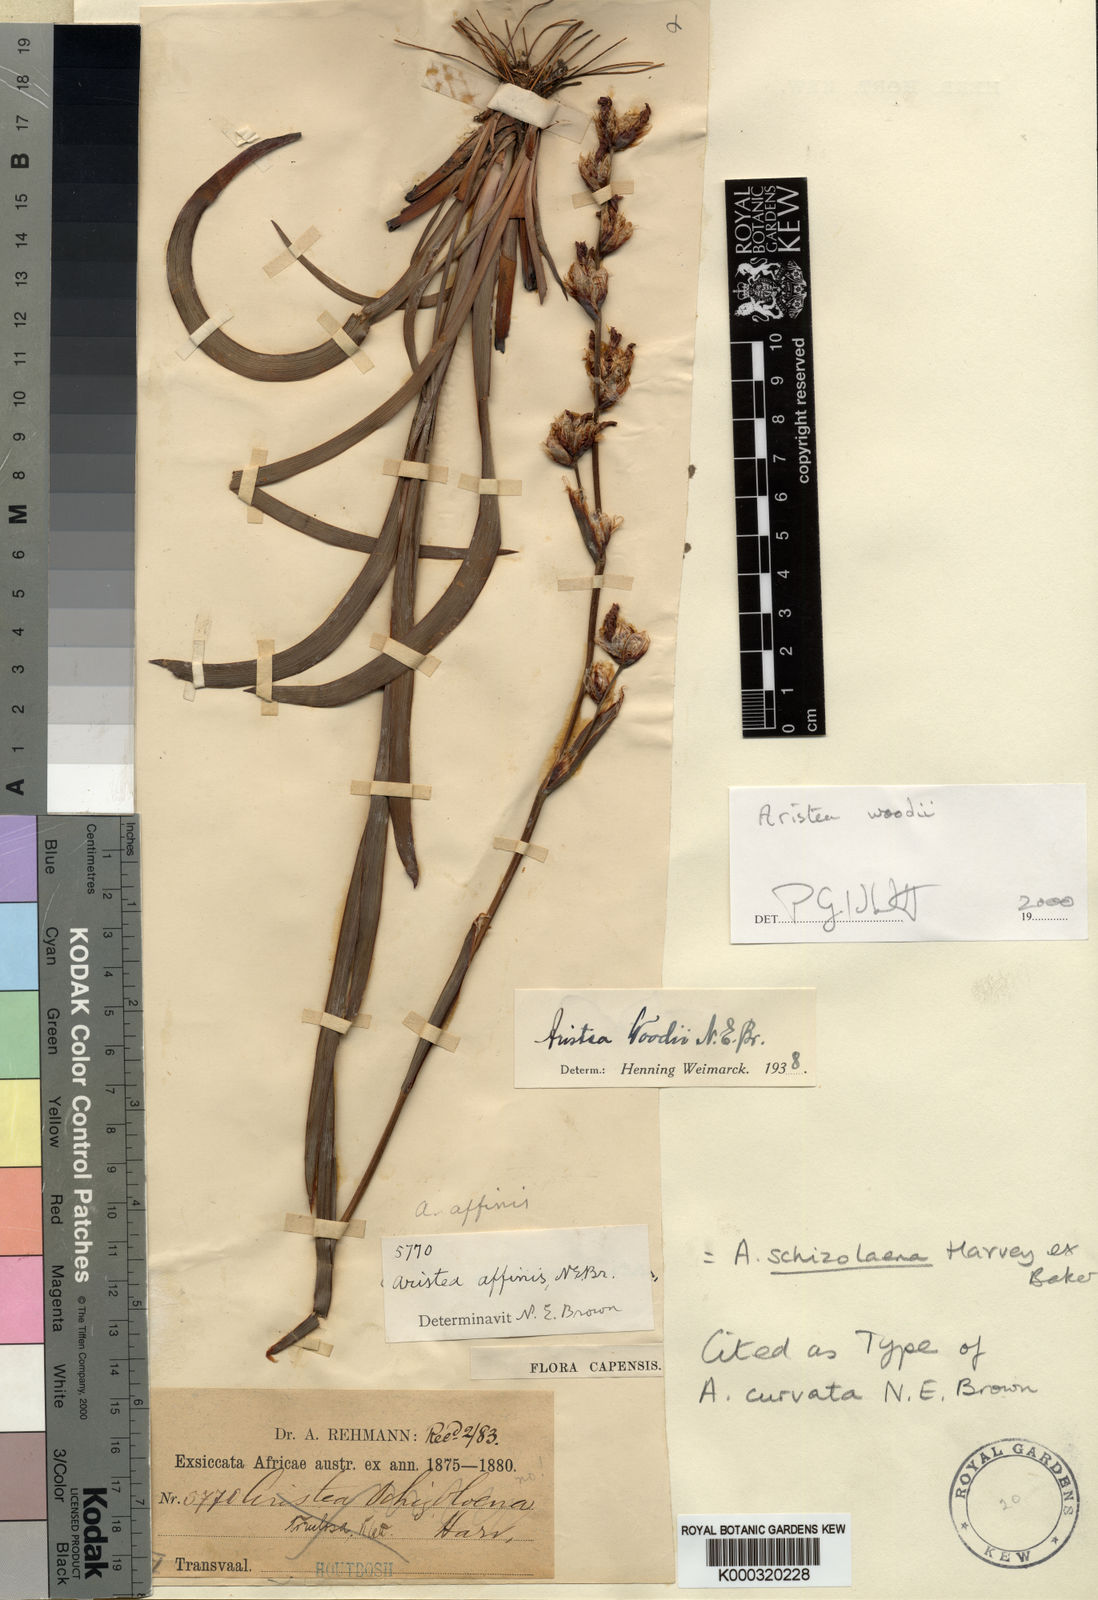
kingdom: Plantae
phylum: Tracheophyta
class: Liliopsida
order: Asparagales
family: Iridaceae
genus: Aristea
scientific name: Aristea torulosa
